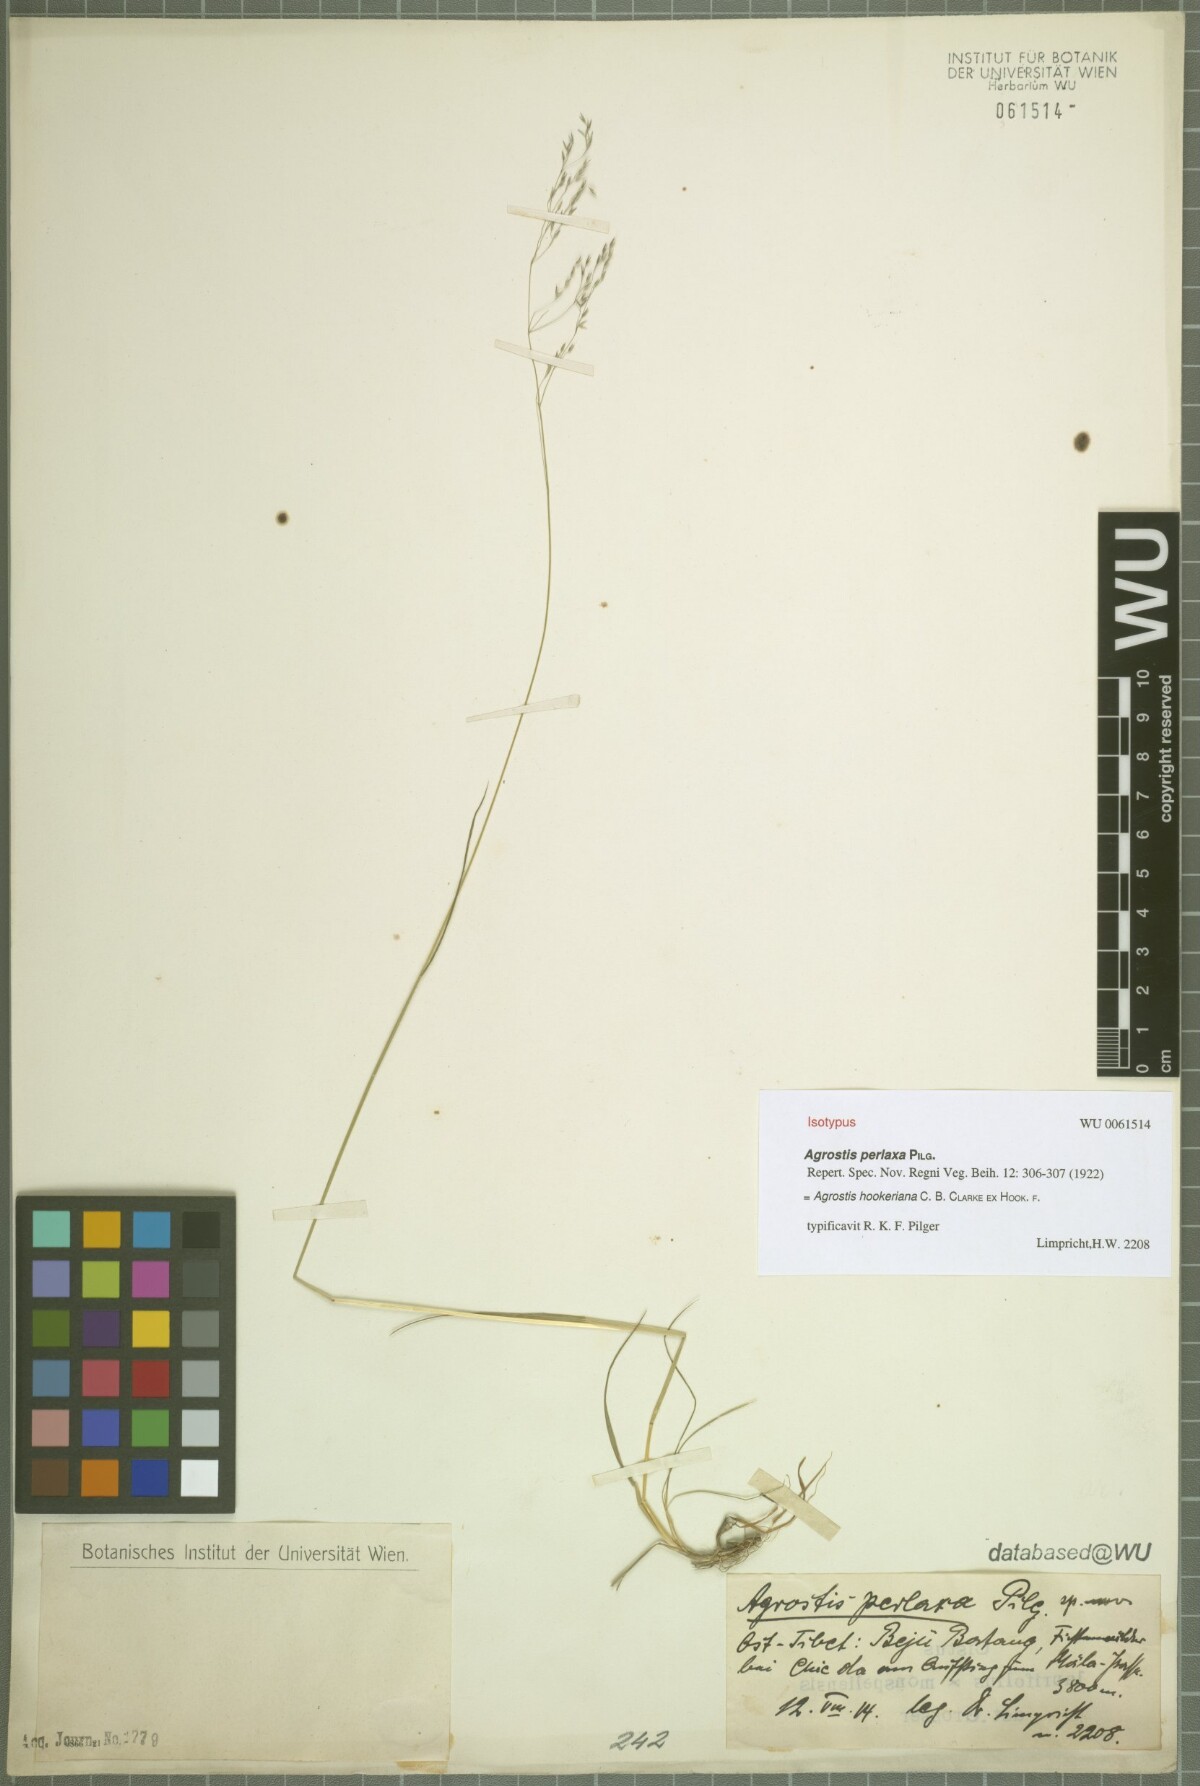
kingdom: Plantae
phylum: Tracheophyta
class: Liliopsida
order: Poales
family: Poaceae
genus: Agrostis
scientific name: Agrostis hookeriana
